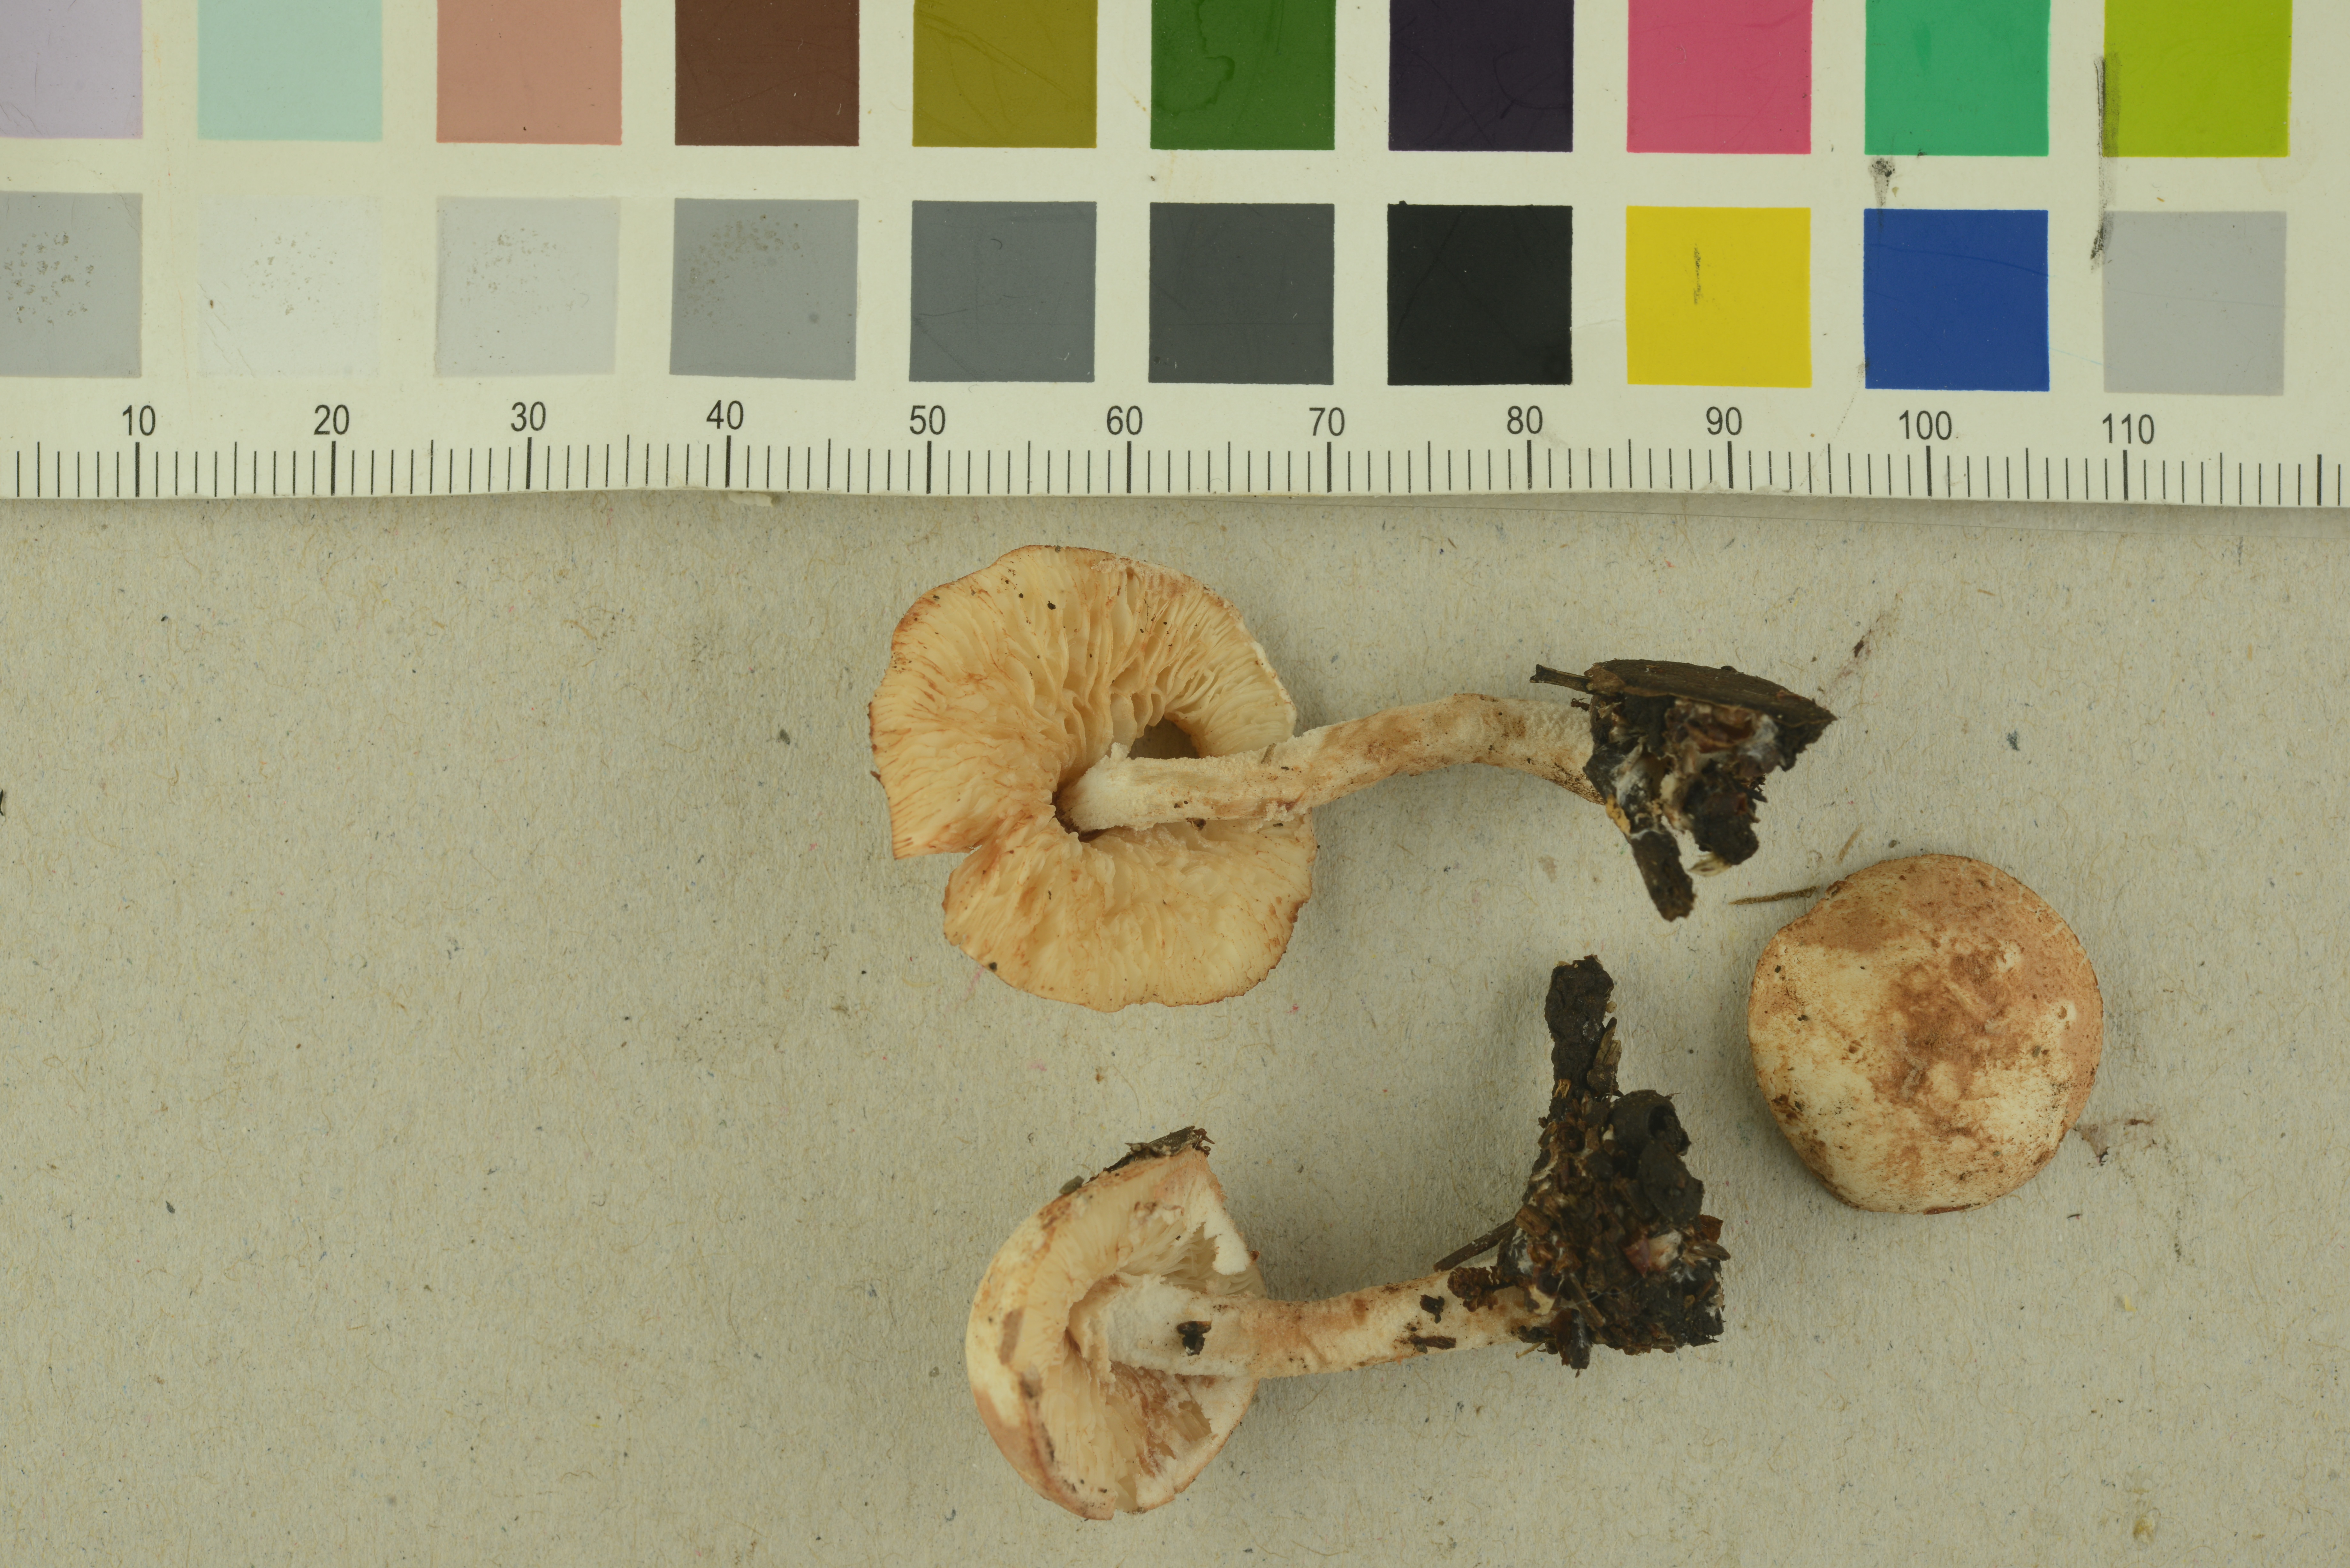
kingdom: Fungi
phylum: Basidiomycota
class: Agaricomycetes
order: Agaricales
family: Agaricaceae
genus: Cystolepiota
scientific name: Cystolepiota hetieri
